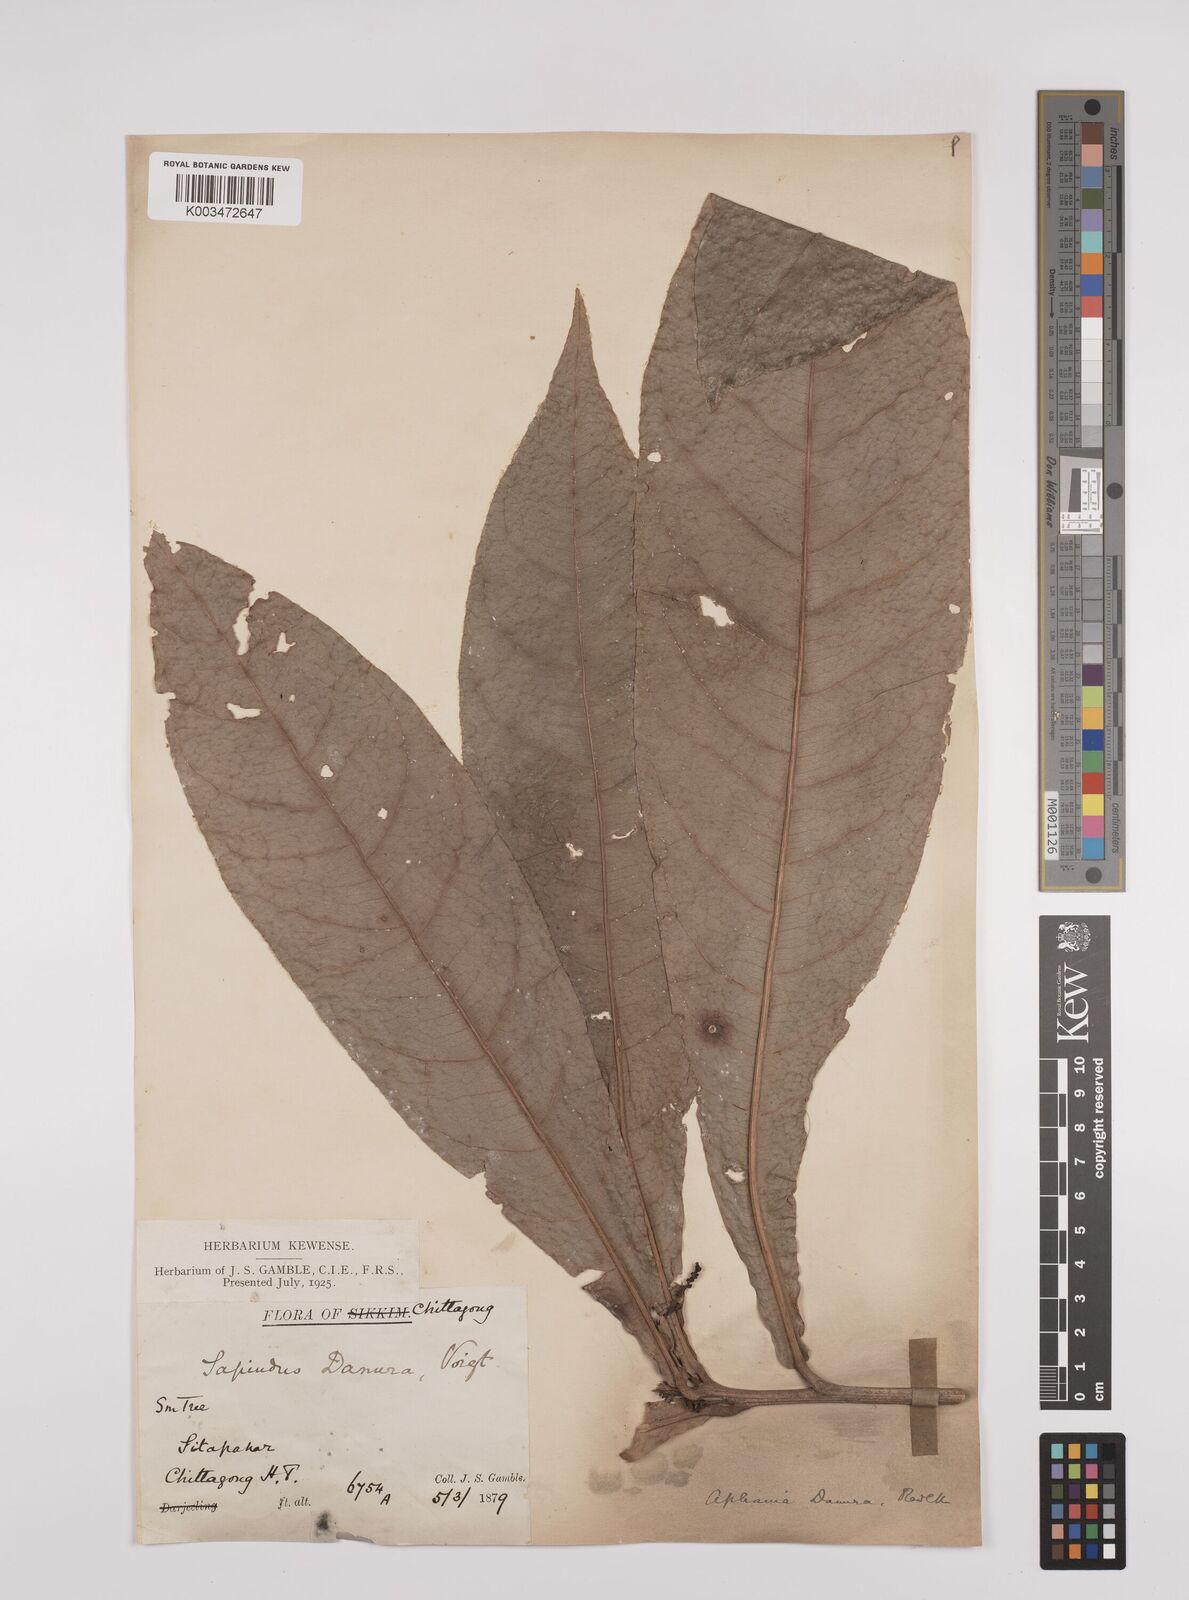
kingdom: Plantae
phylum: Tracheophyta
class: Magnoliopsida
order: Sapindales
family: Sapindaceae
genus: Lepisanthes
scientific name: Lepisanthes senegalensis
